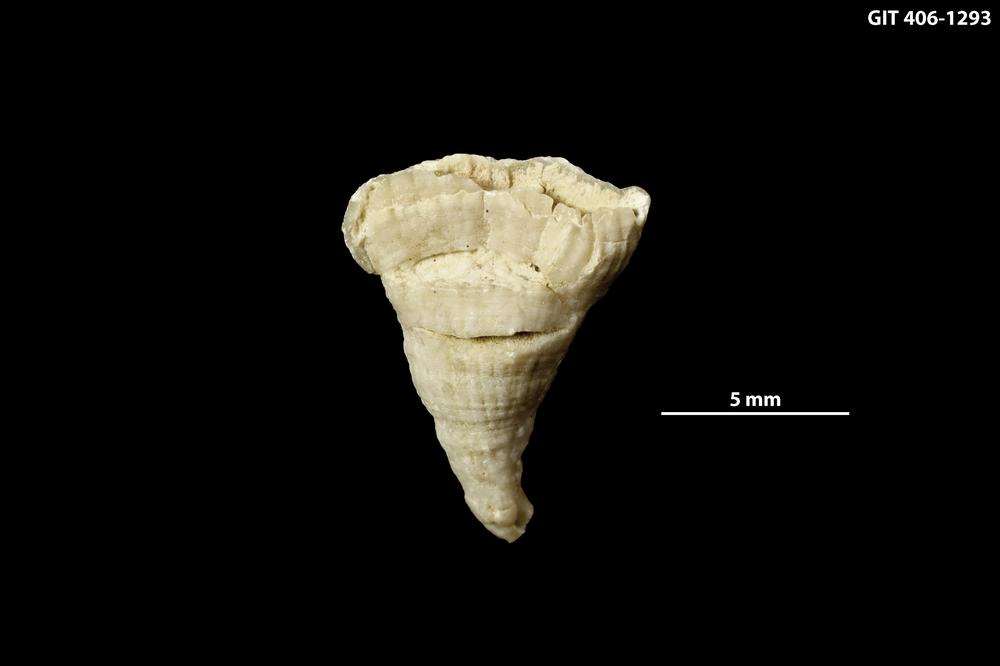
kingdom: Animalia
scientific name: Animalia
